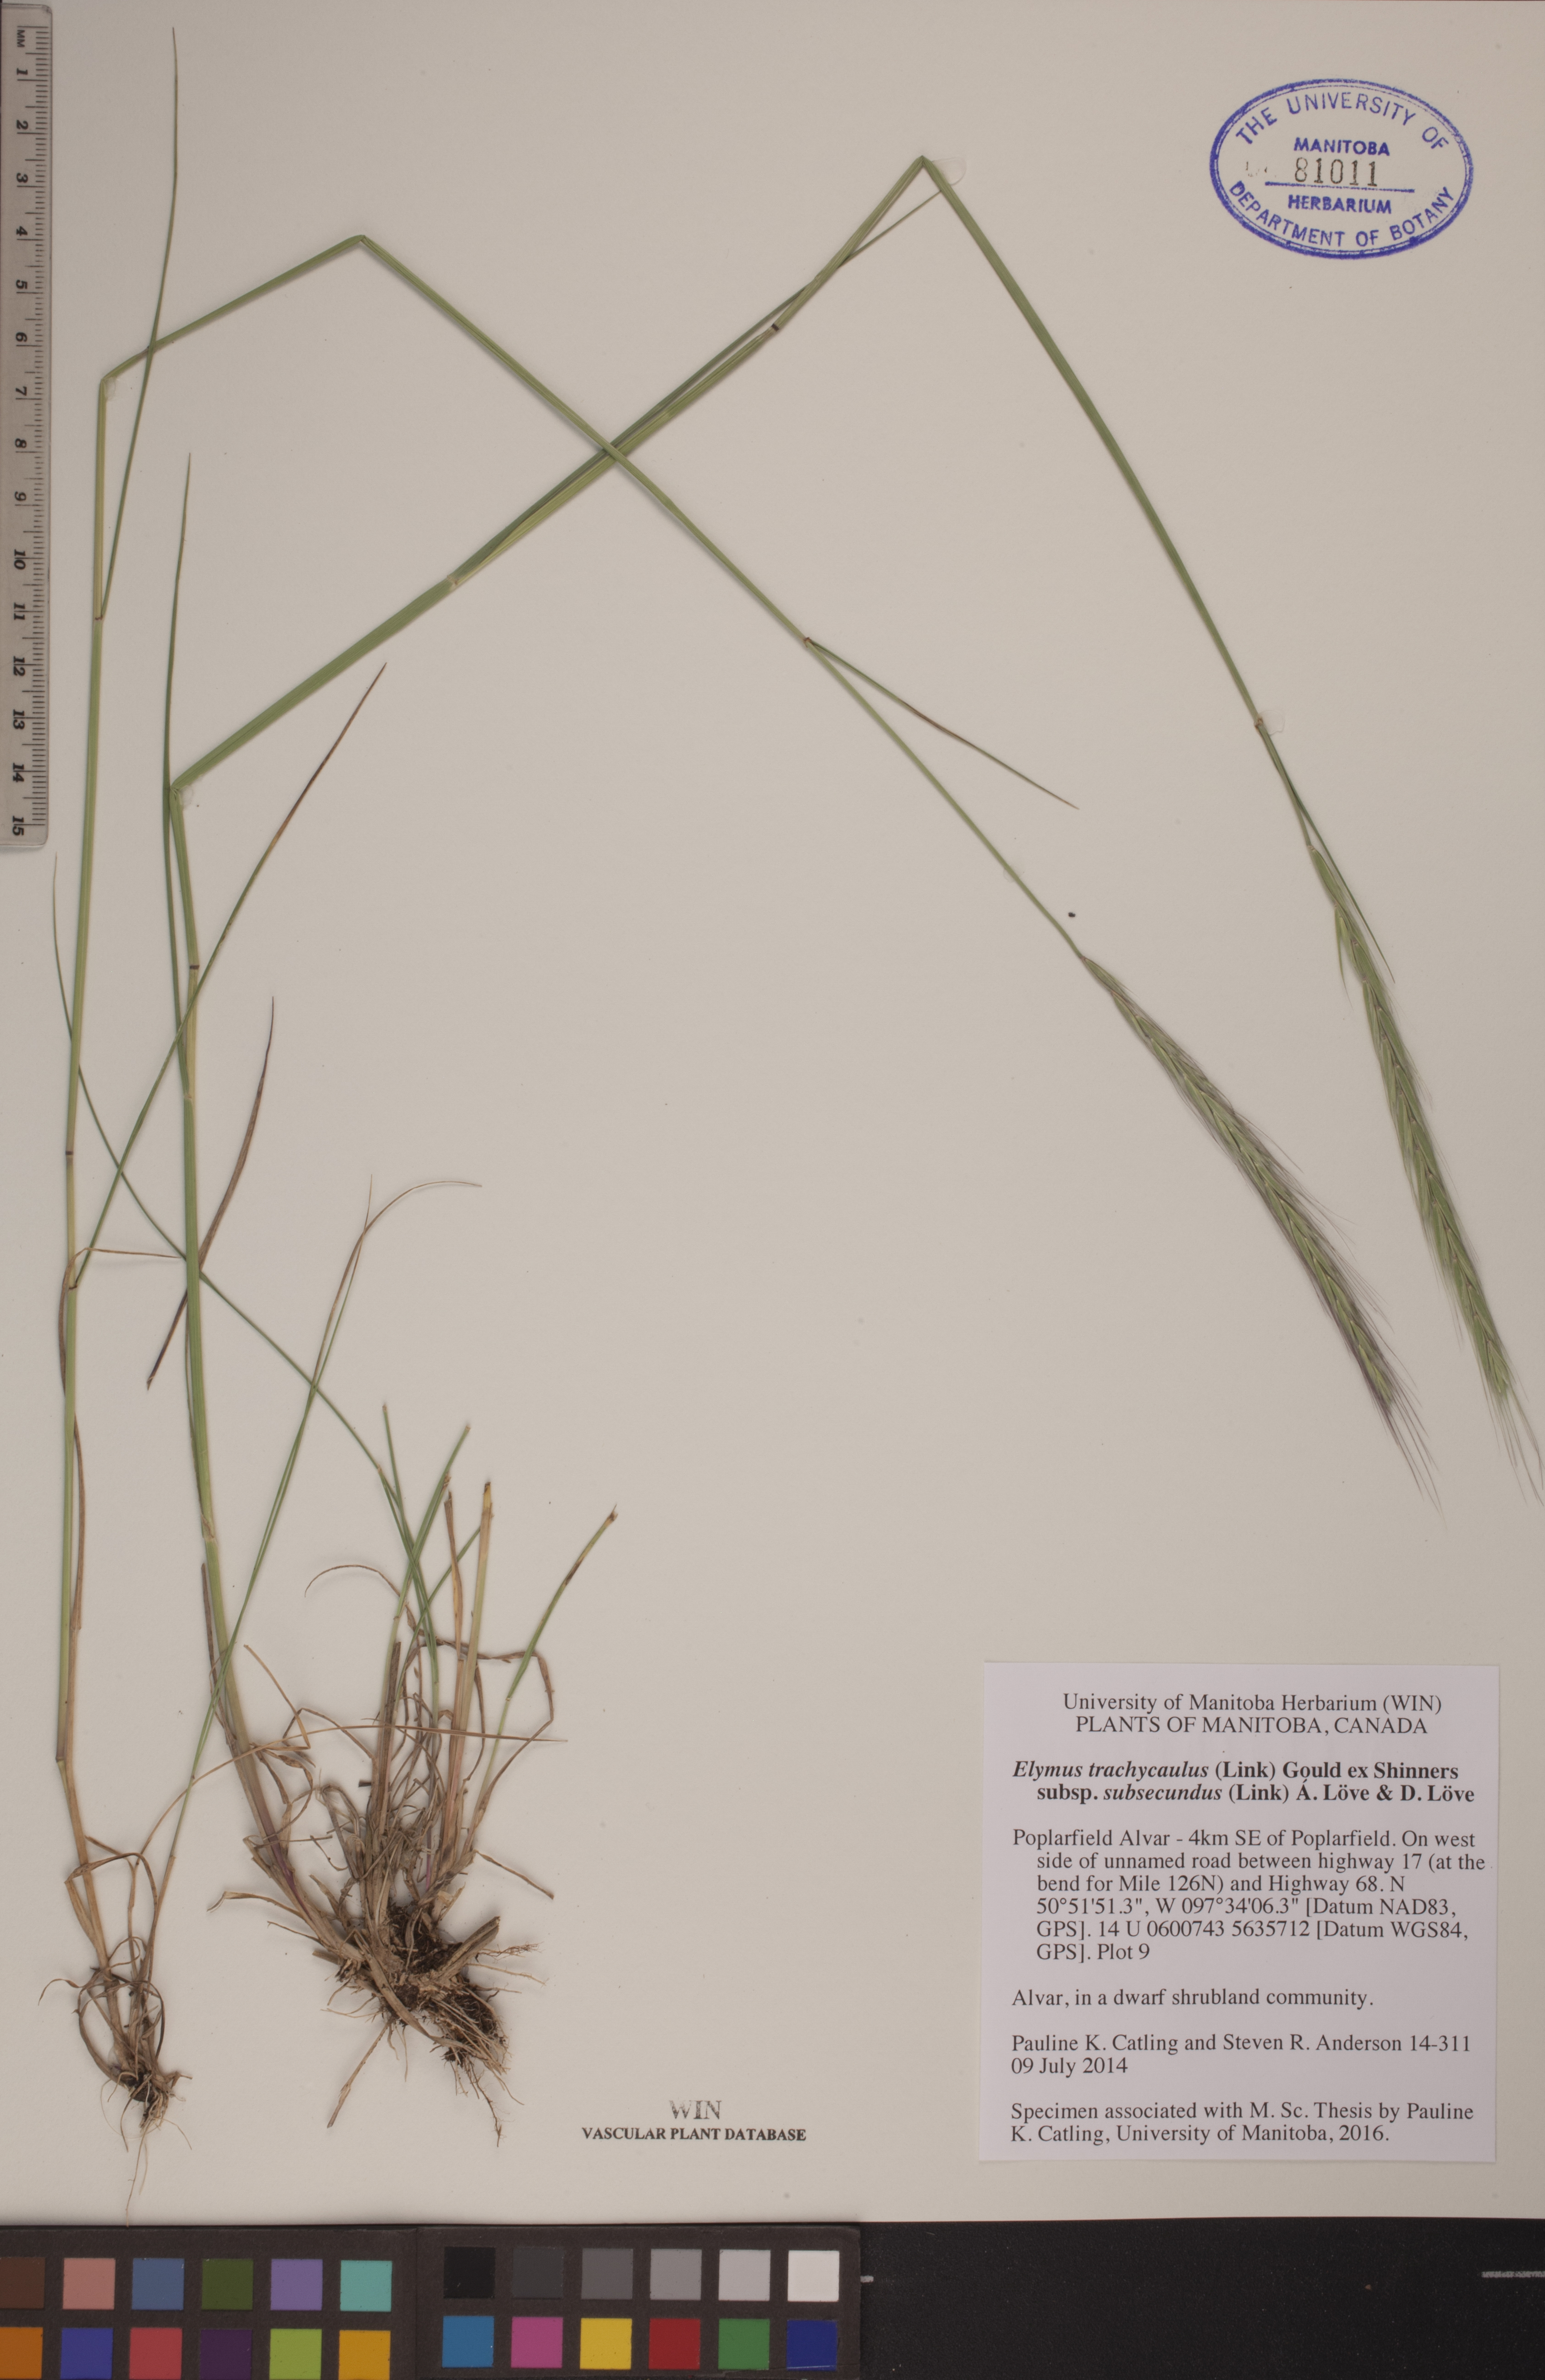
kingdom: Plantae
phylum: Tracheophyta
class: Liliopsida
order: Poales
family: Poaceae
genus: Elymus
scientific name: Elymus violaceus
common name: Arctic wheatgrass
